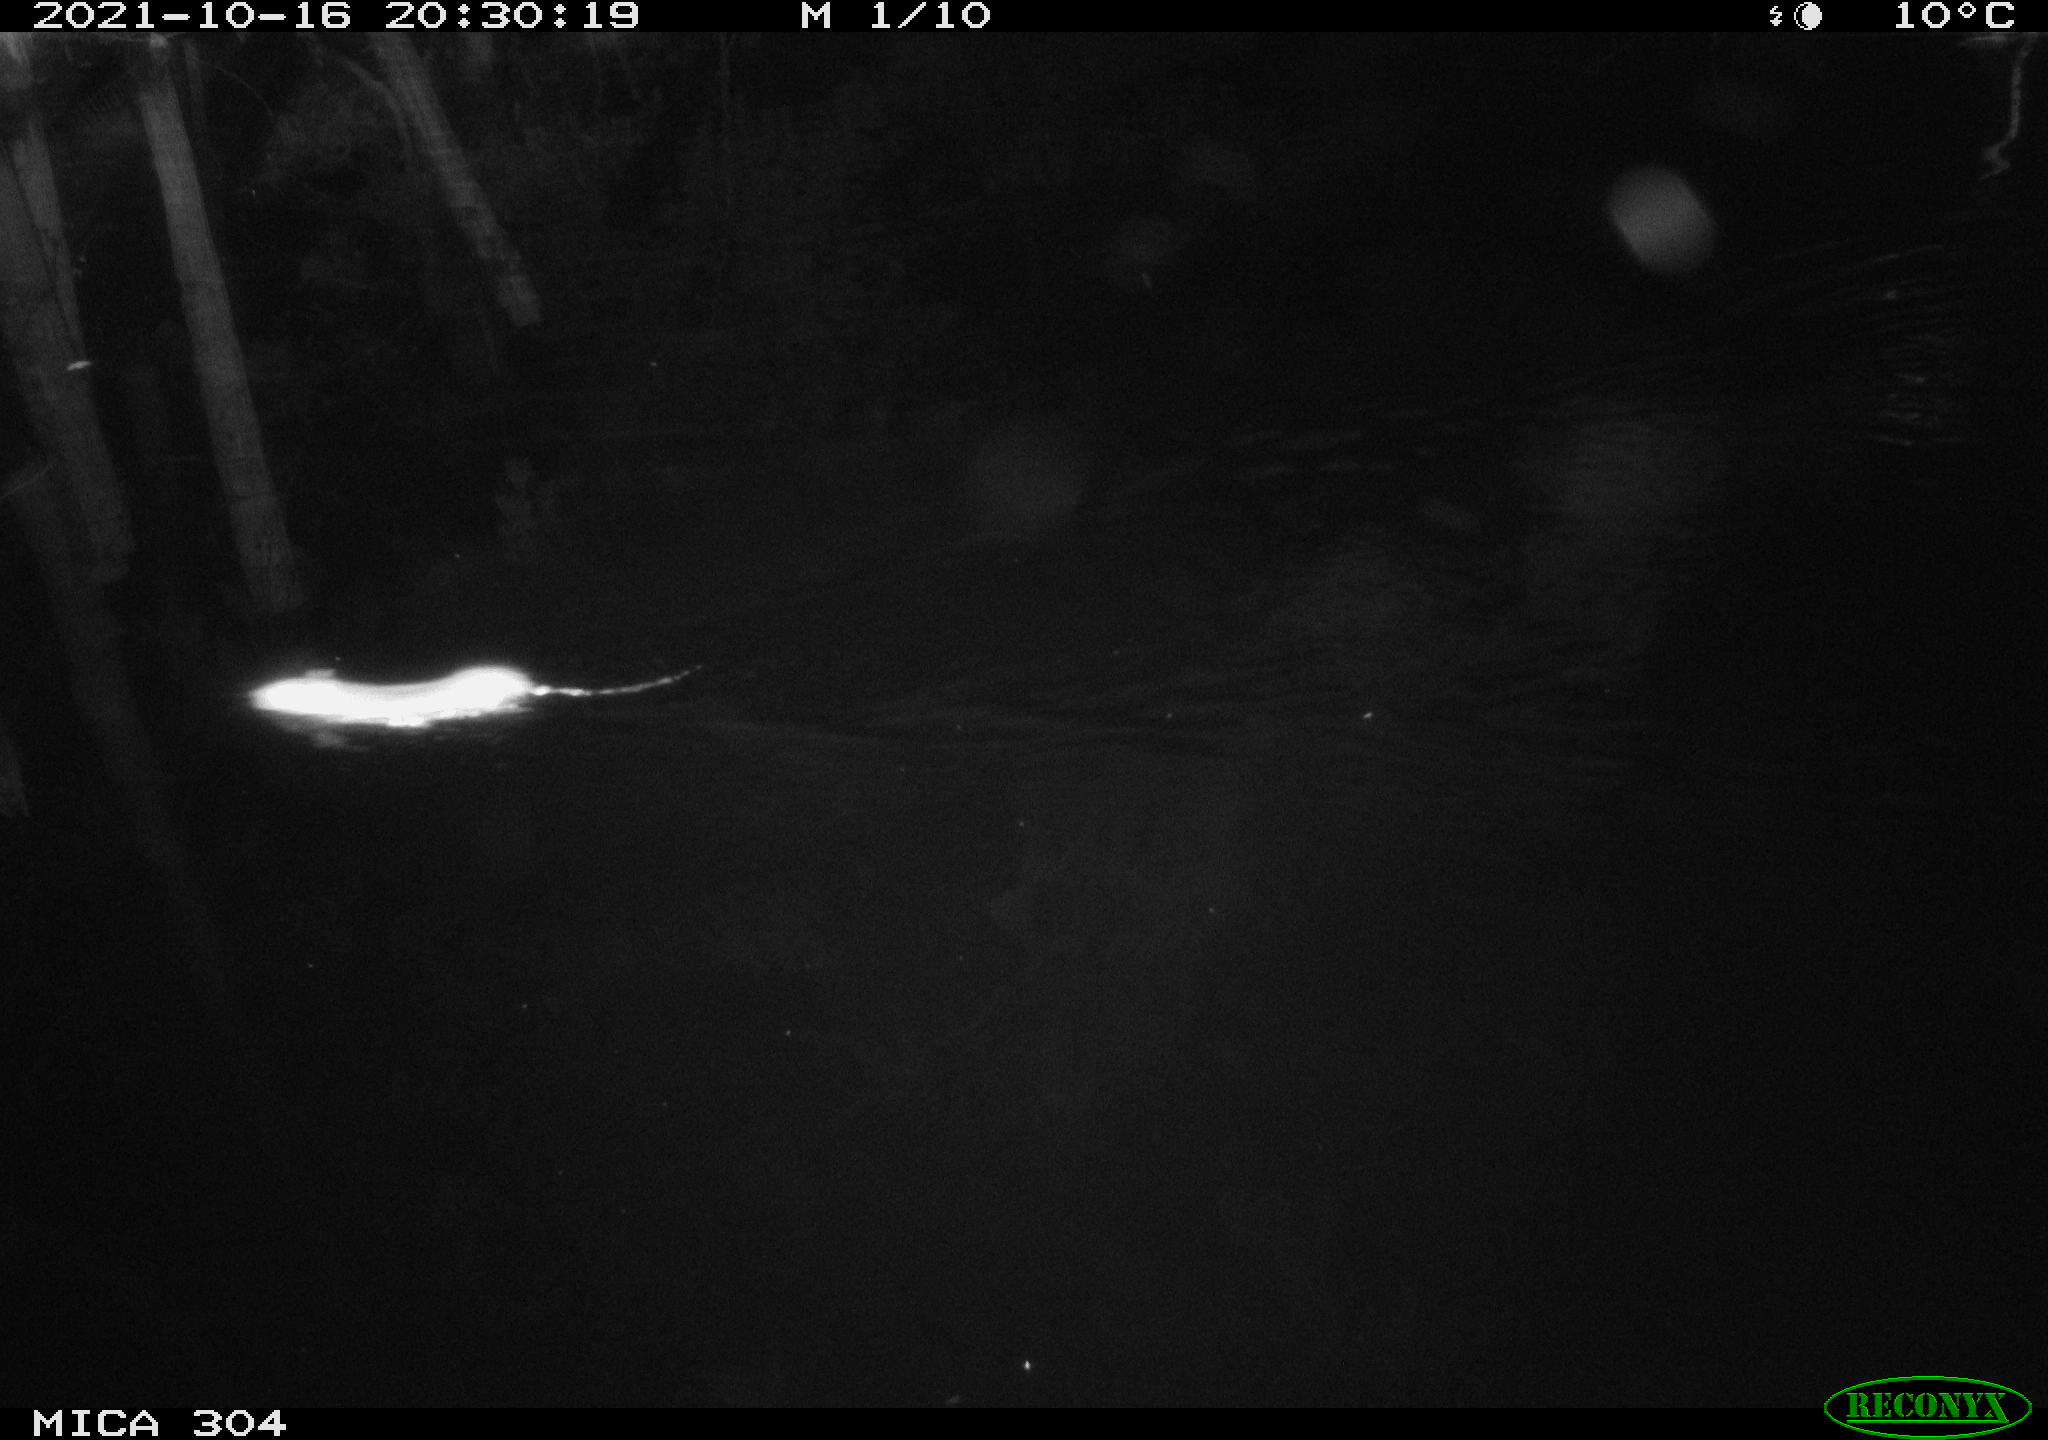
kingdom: Animalia
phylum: Chordata
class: Mammalia
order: Rodentia
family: Muridae
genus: Rattus
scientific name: Rattus norvegicus
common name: Brown rat
